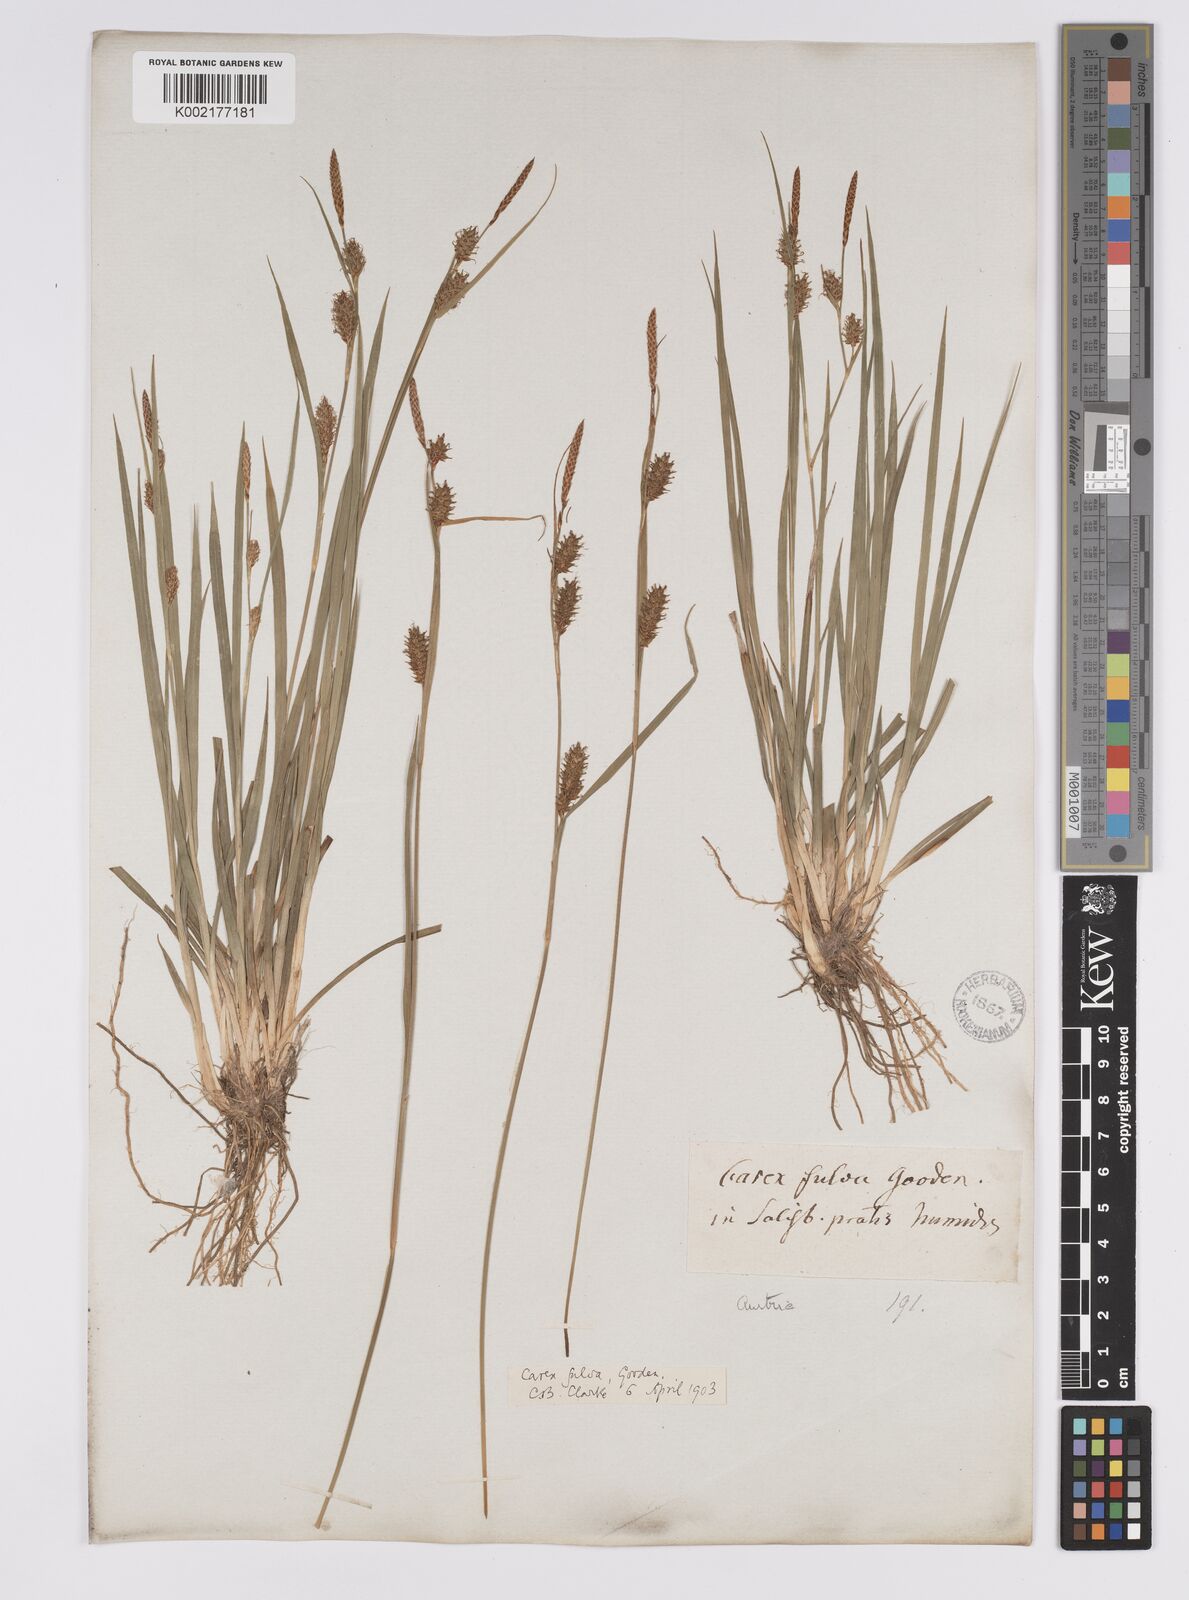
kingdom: Plantae
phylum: Tracheophyta
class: Liliopsida
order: Poales
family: Cyperaceae
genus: Carex
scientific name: Carex hostiana
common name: Tawny sedge
